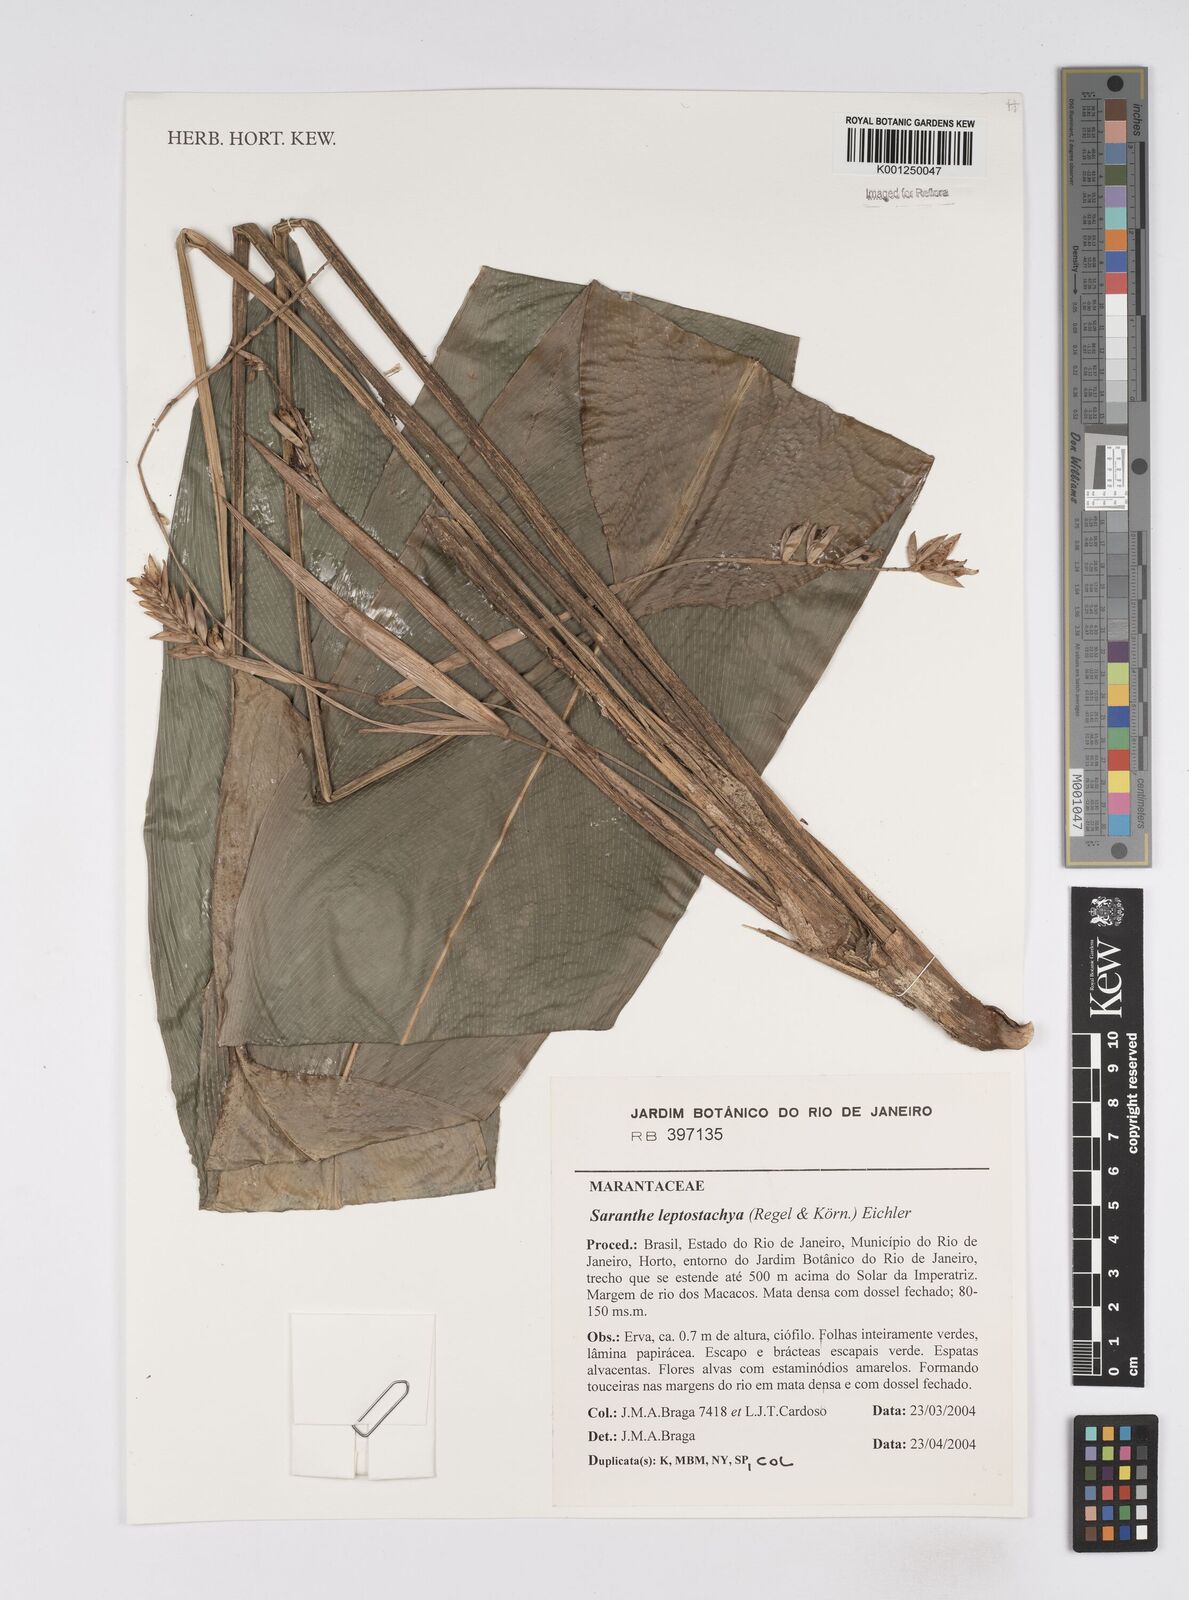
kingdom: Plantae
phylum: Tracheophyta
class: Liliopsida
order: Zingiberales
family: Marantaceae
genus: Saranthe
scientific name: Saranthe leptostachya
